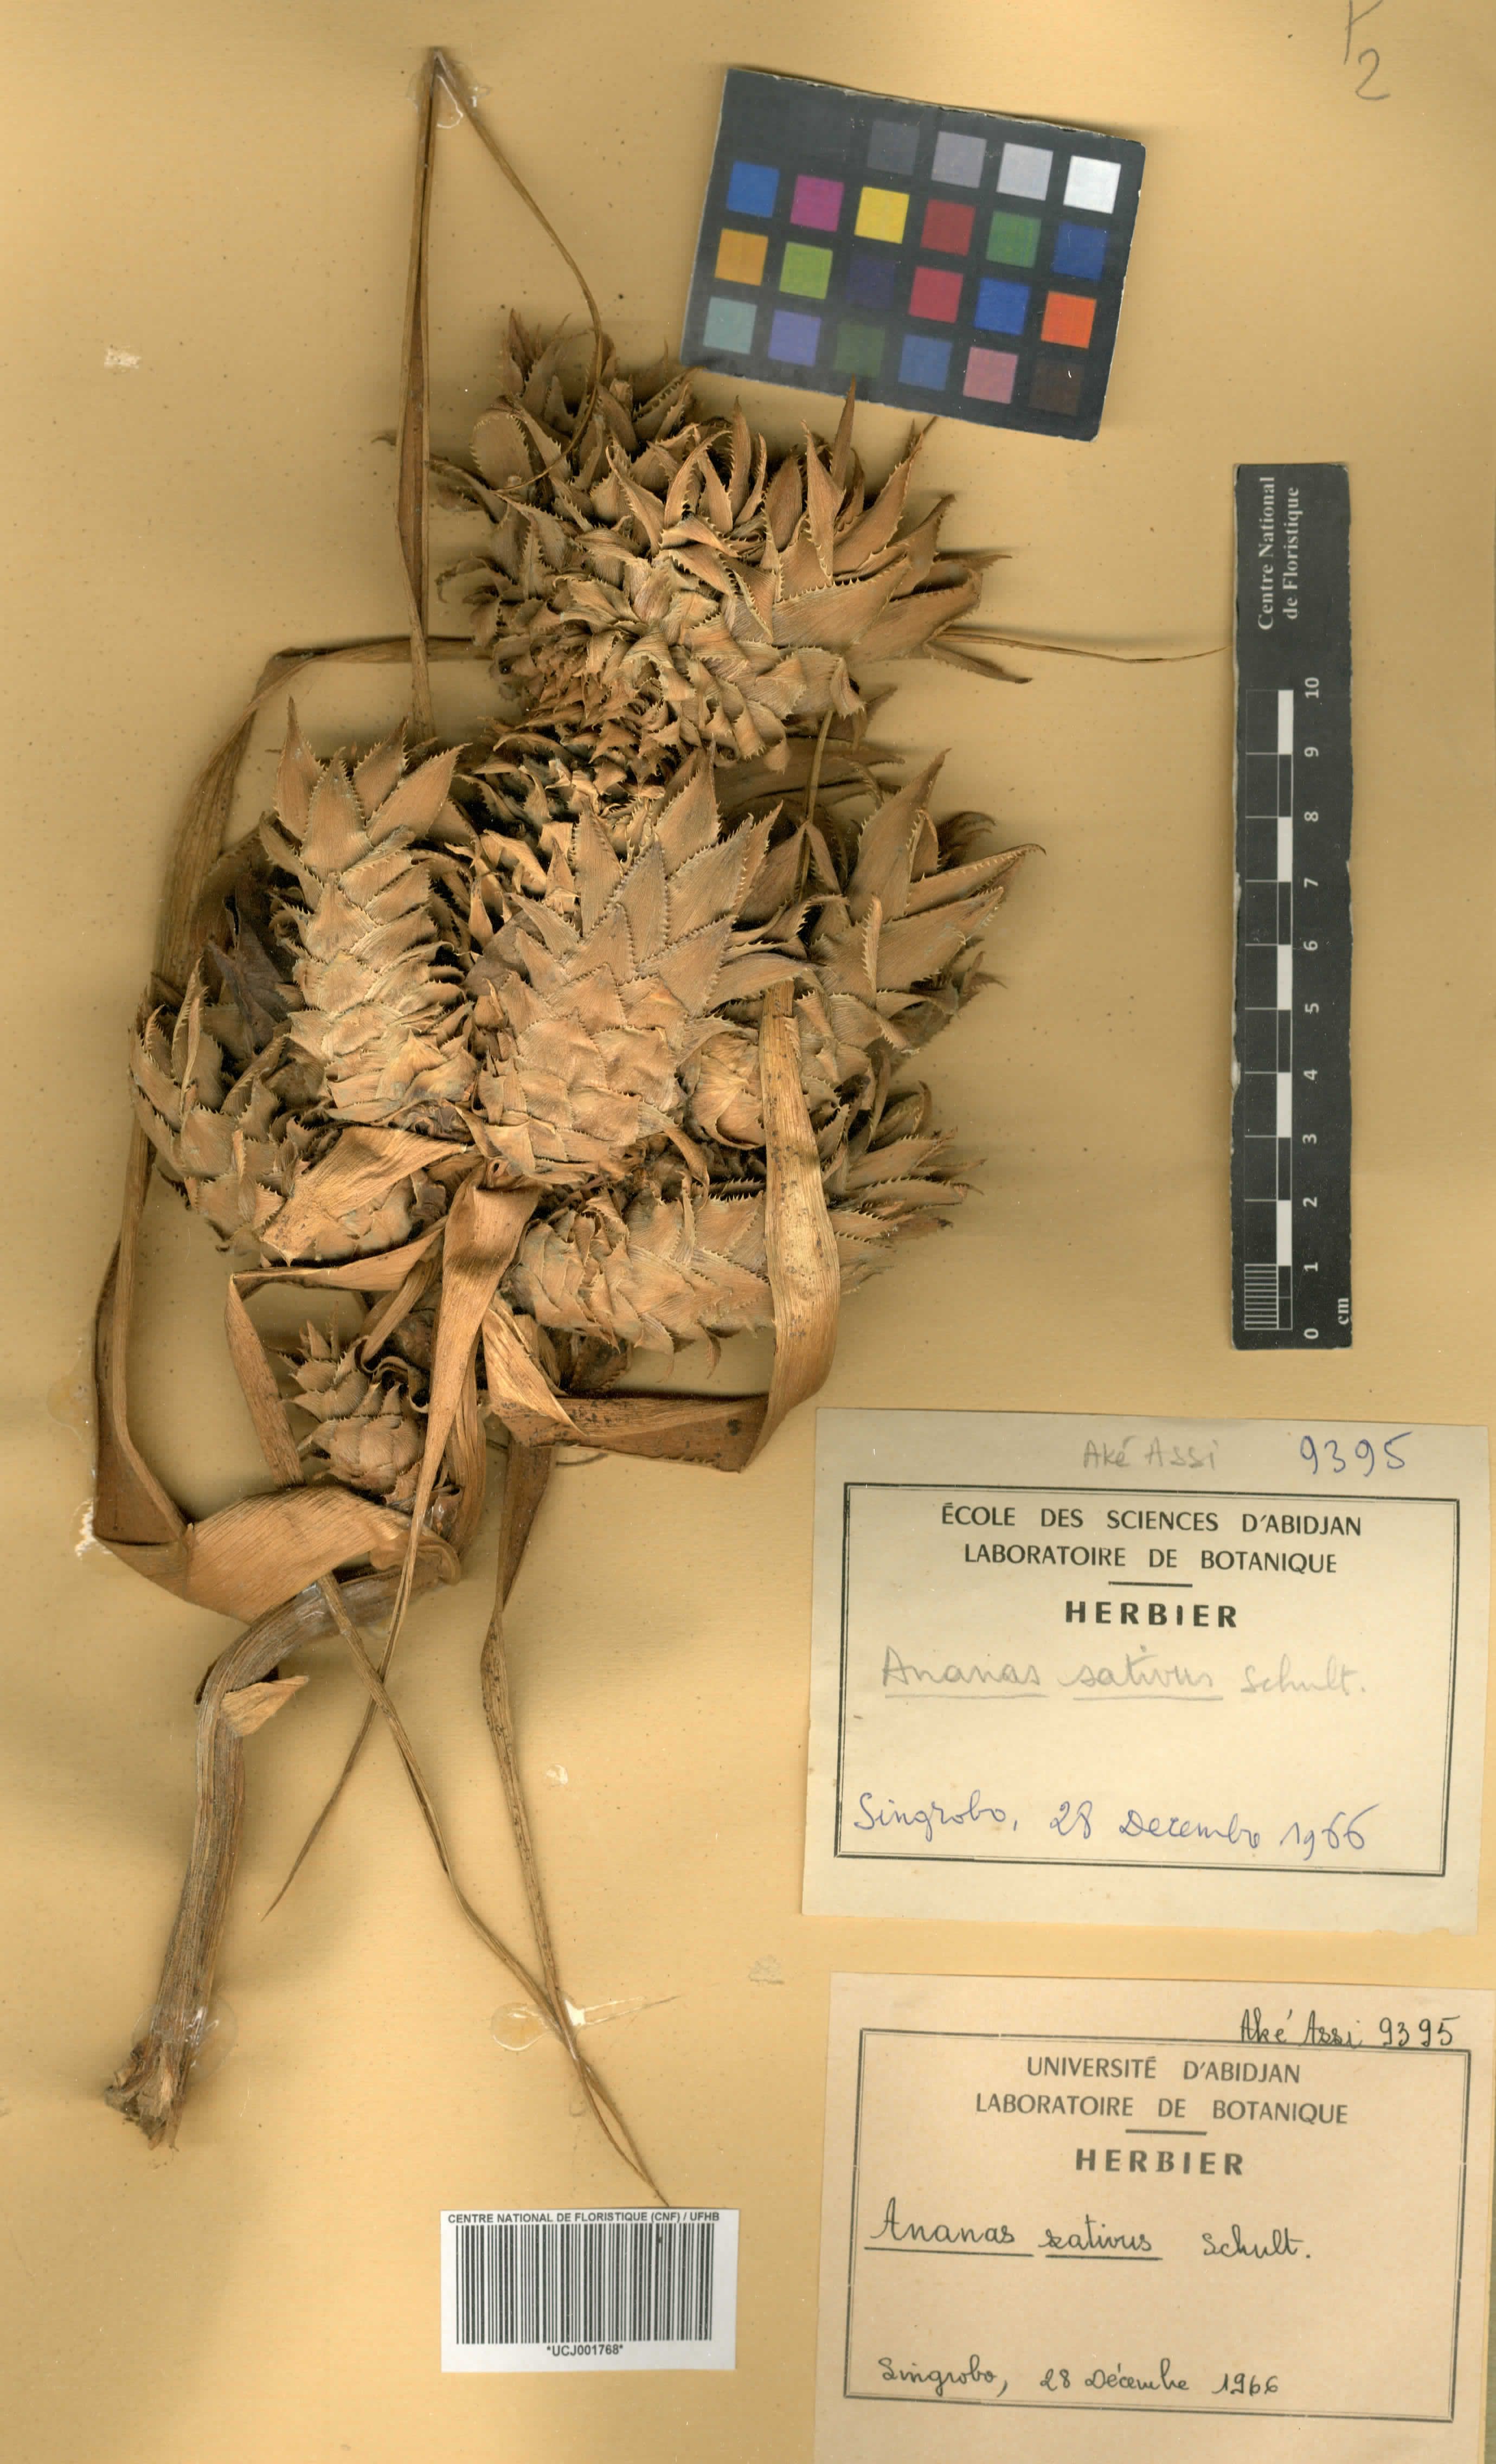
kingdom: Plantae
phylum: Tracheophyta
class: Liliopsida
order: Poales
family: Bromeliaceae
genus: Ananas
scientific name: Ananas comosus
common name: Pineapple
